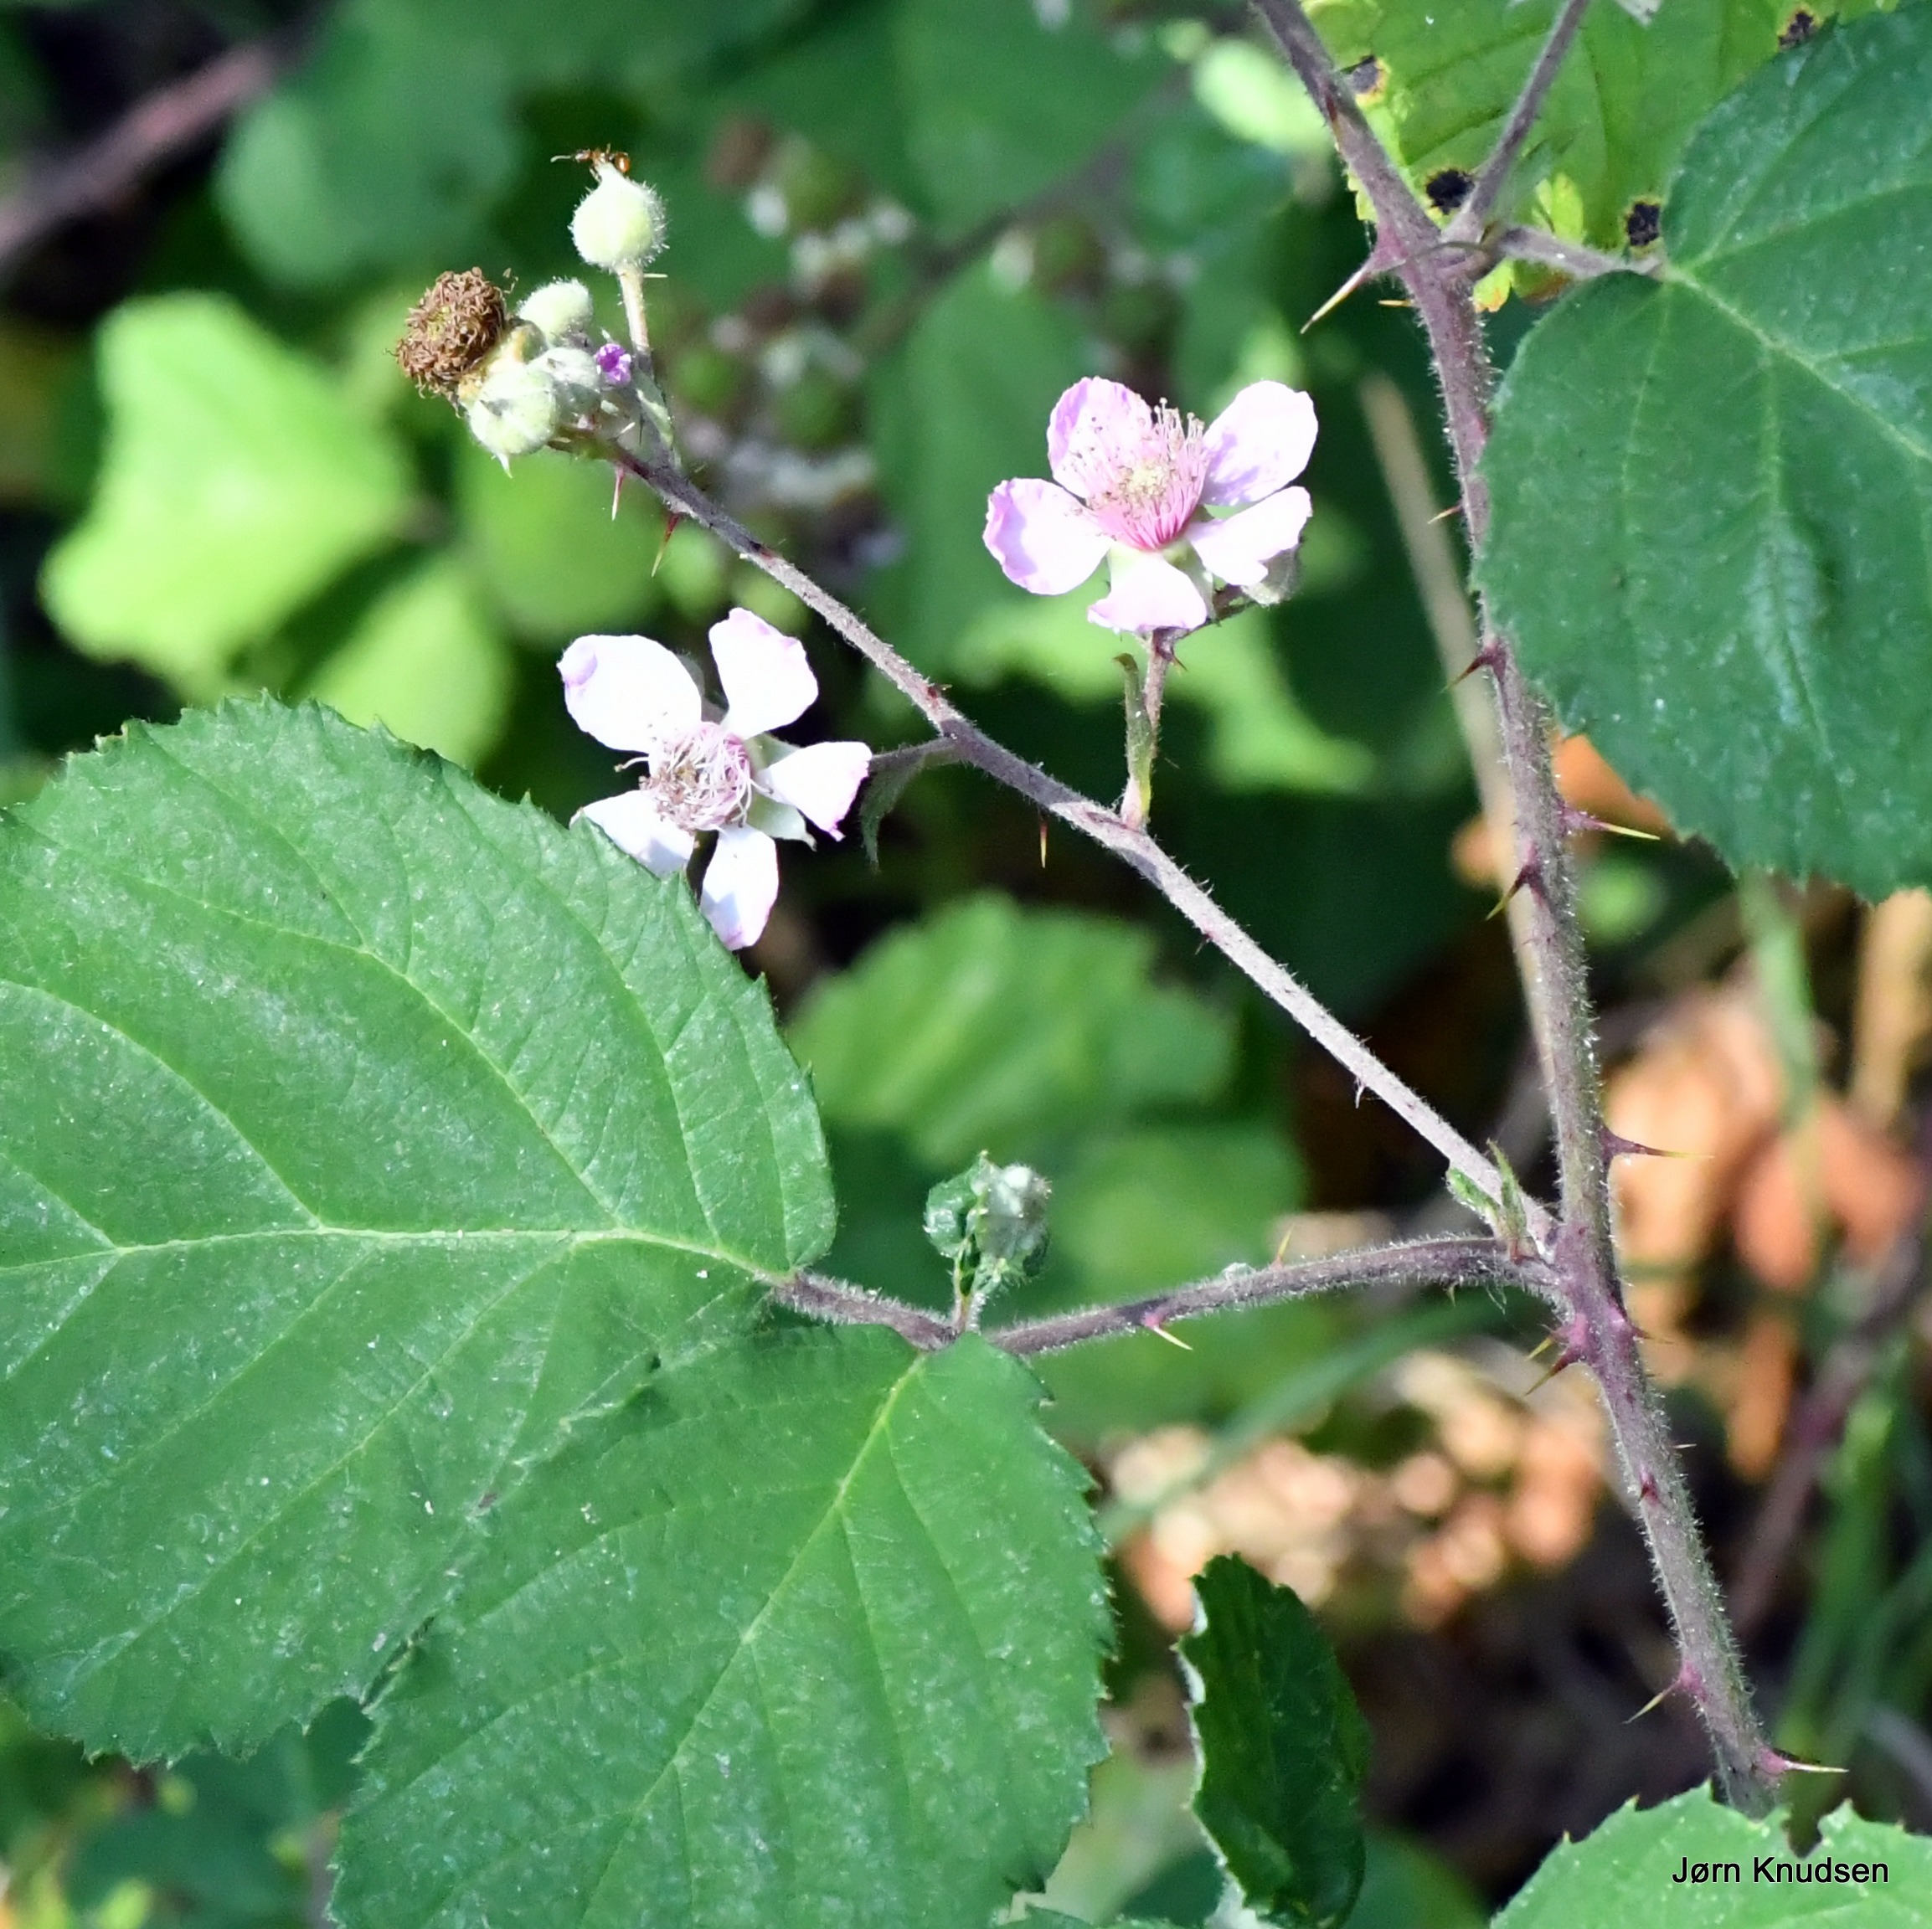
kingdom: Plantae
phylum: Tracheophyta
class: Magnoliopsida
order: Rosales
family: Rosaceae
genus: Rubus
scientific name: Rubus vestitus
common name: Rundbladet brombær
